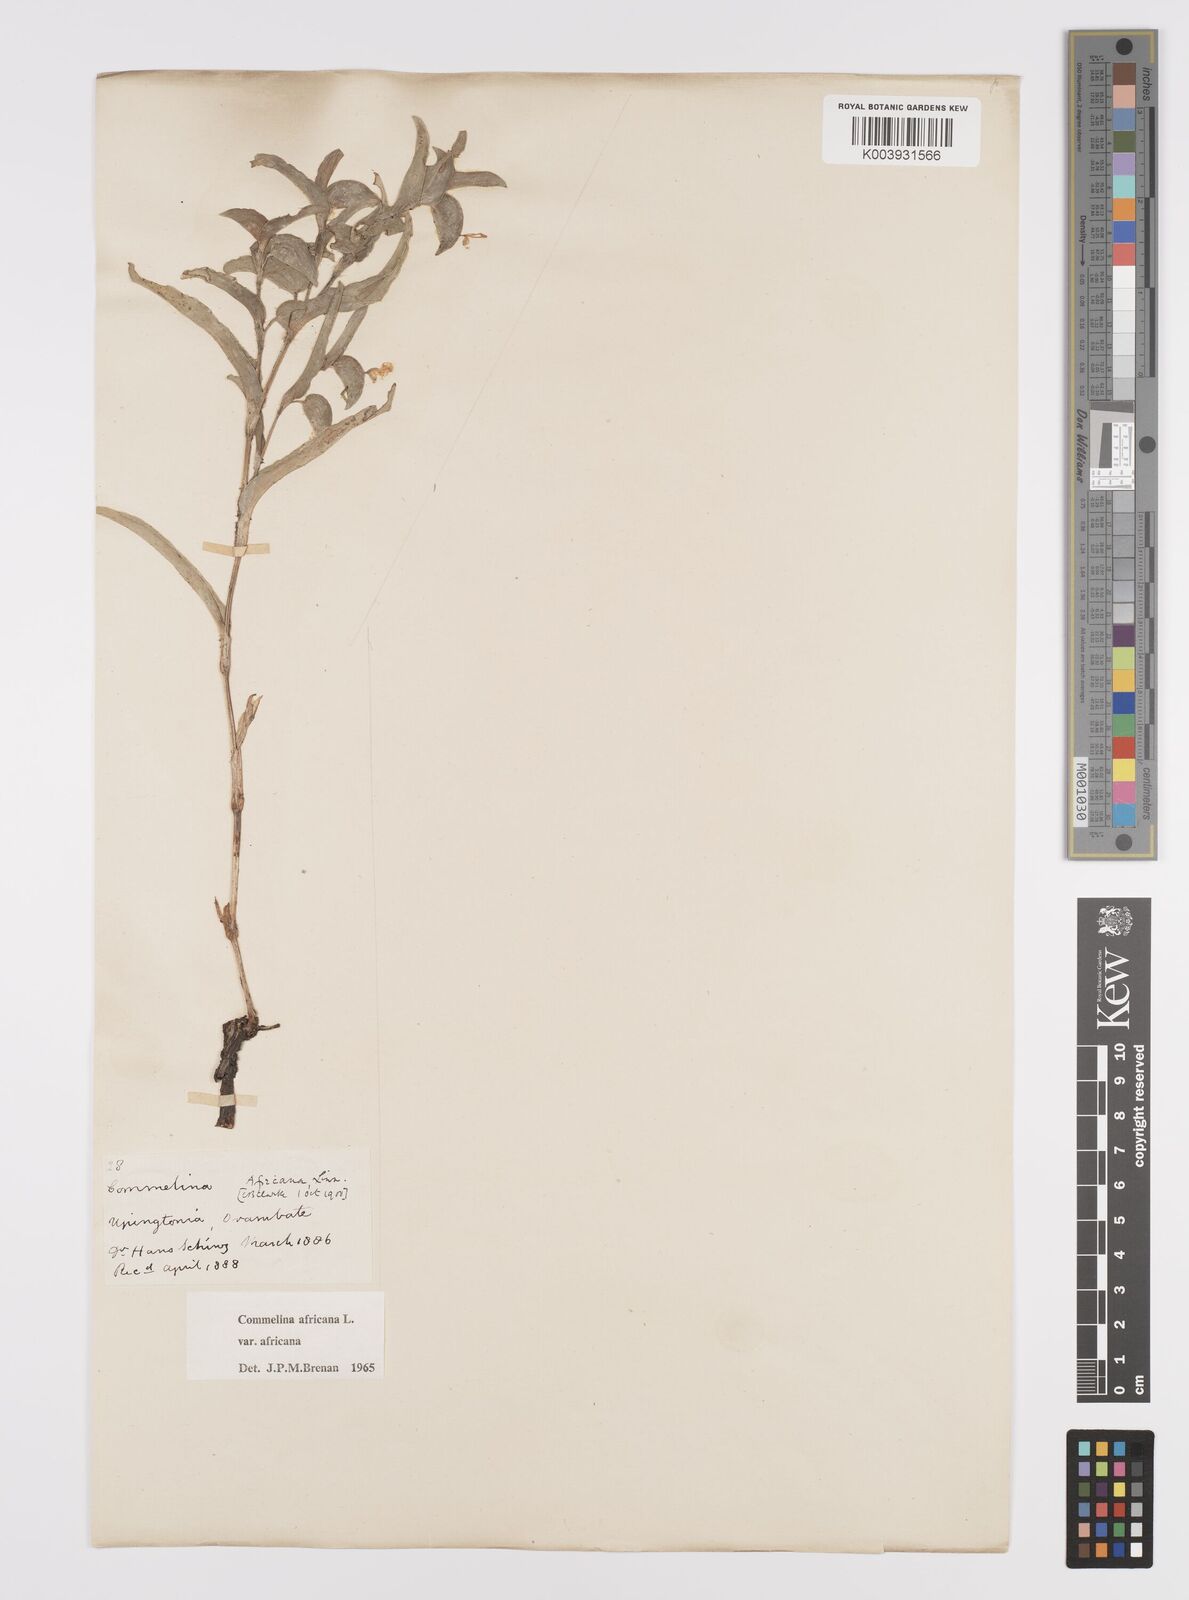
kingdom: Plantae
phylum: Tracheophyta
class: Liliopsida
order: Commelinales
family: Commelinaceae
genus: Commelina
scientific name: Commelina africana
